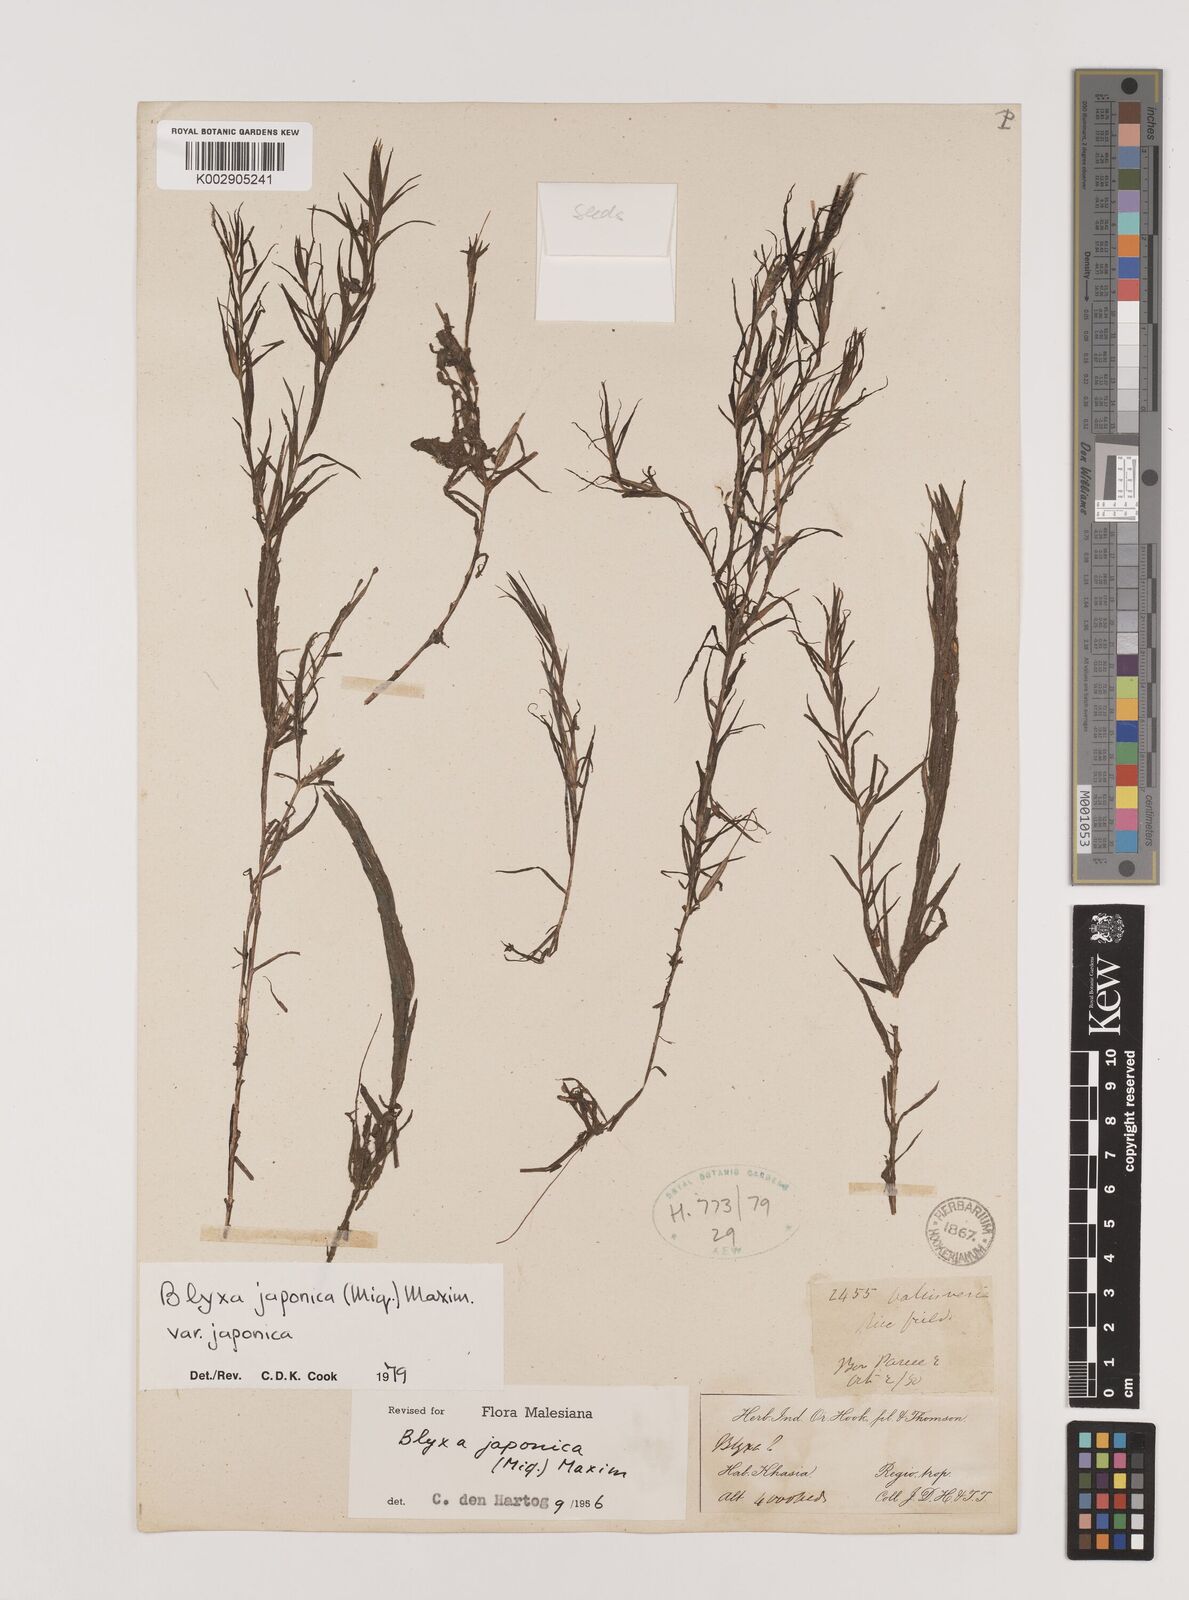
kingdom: Plantae
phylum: Tracheophyta
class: Liliopsida
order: Alismatales
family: Hydrocharitaceae
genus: Blyxa
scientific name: Blyxa japonica
